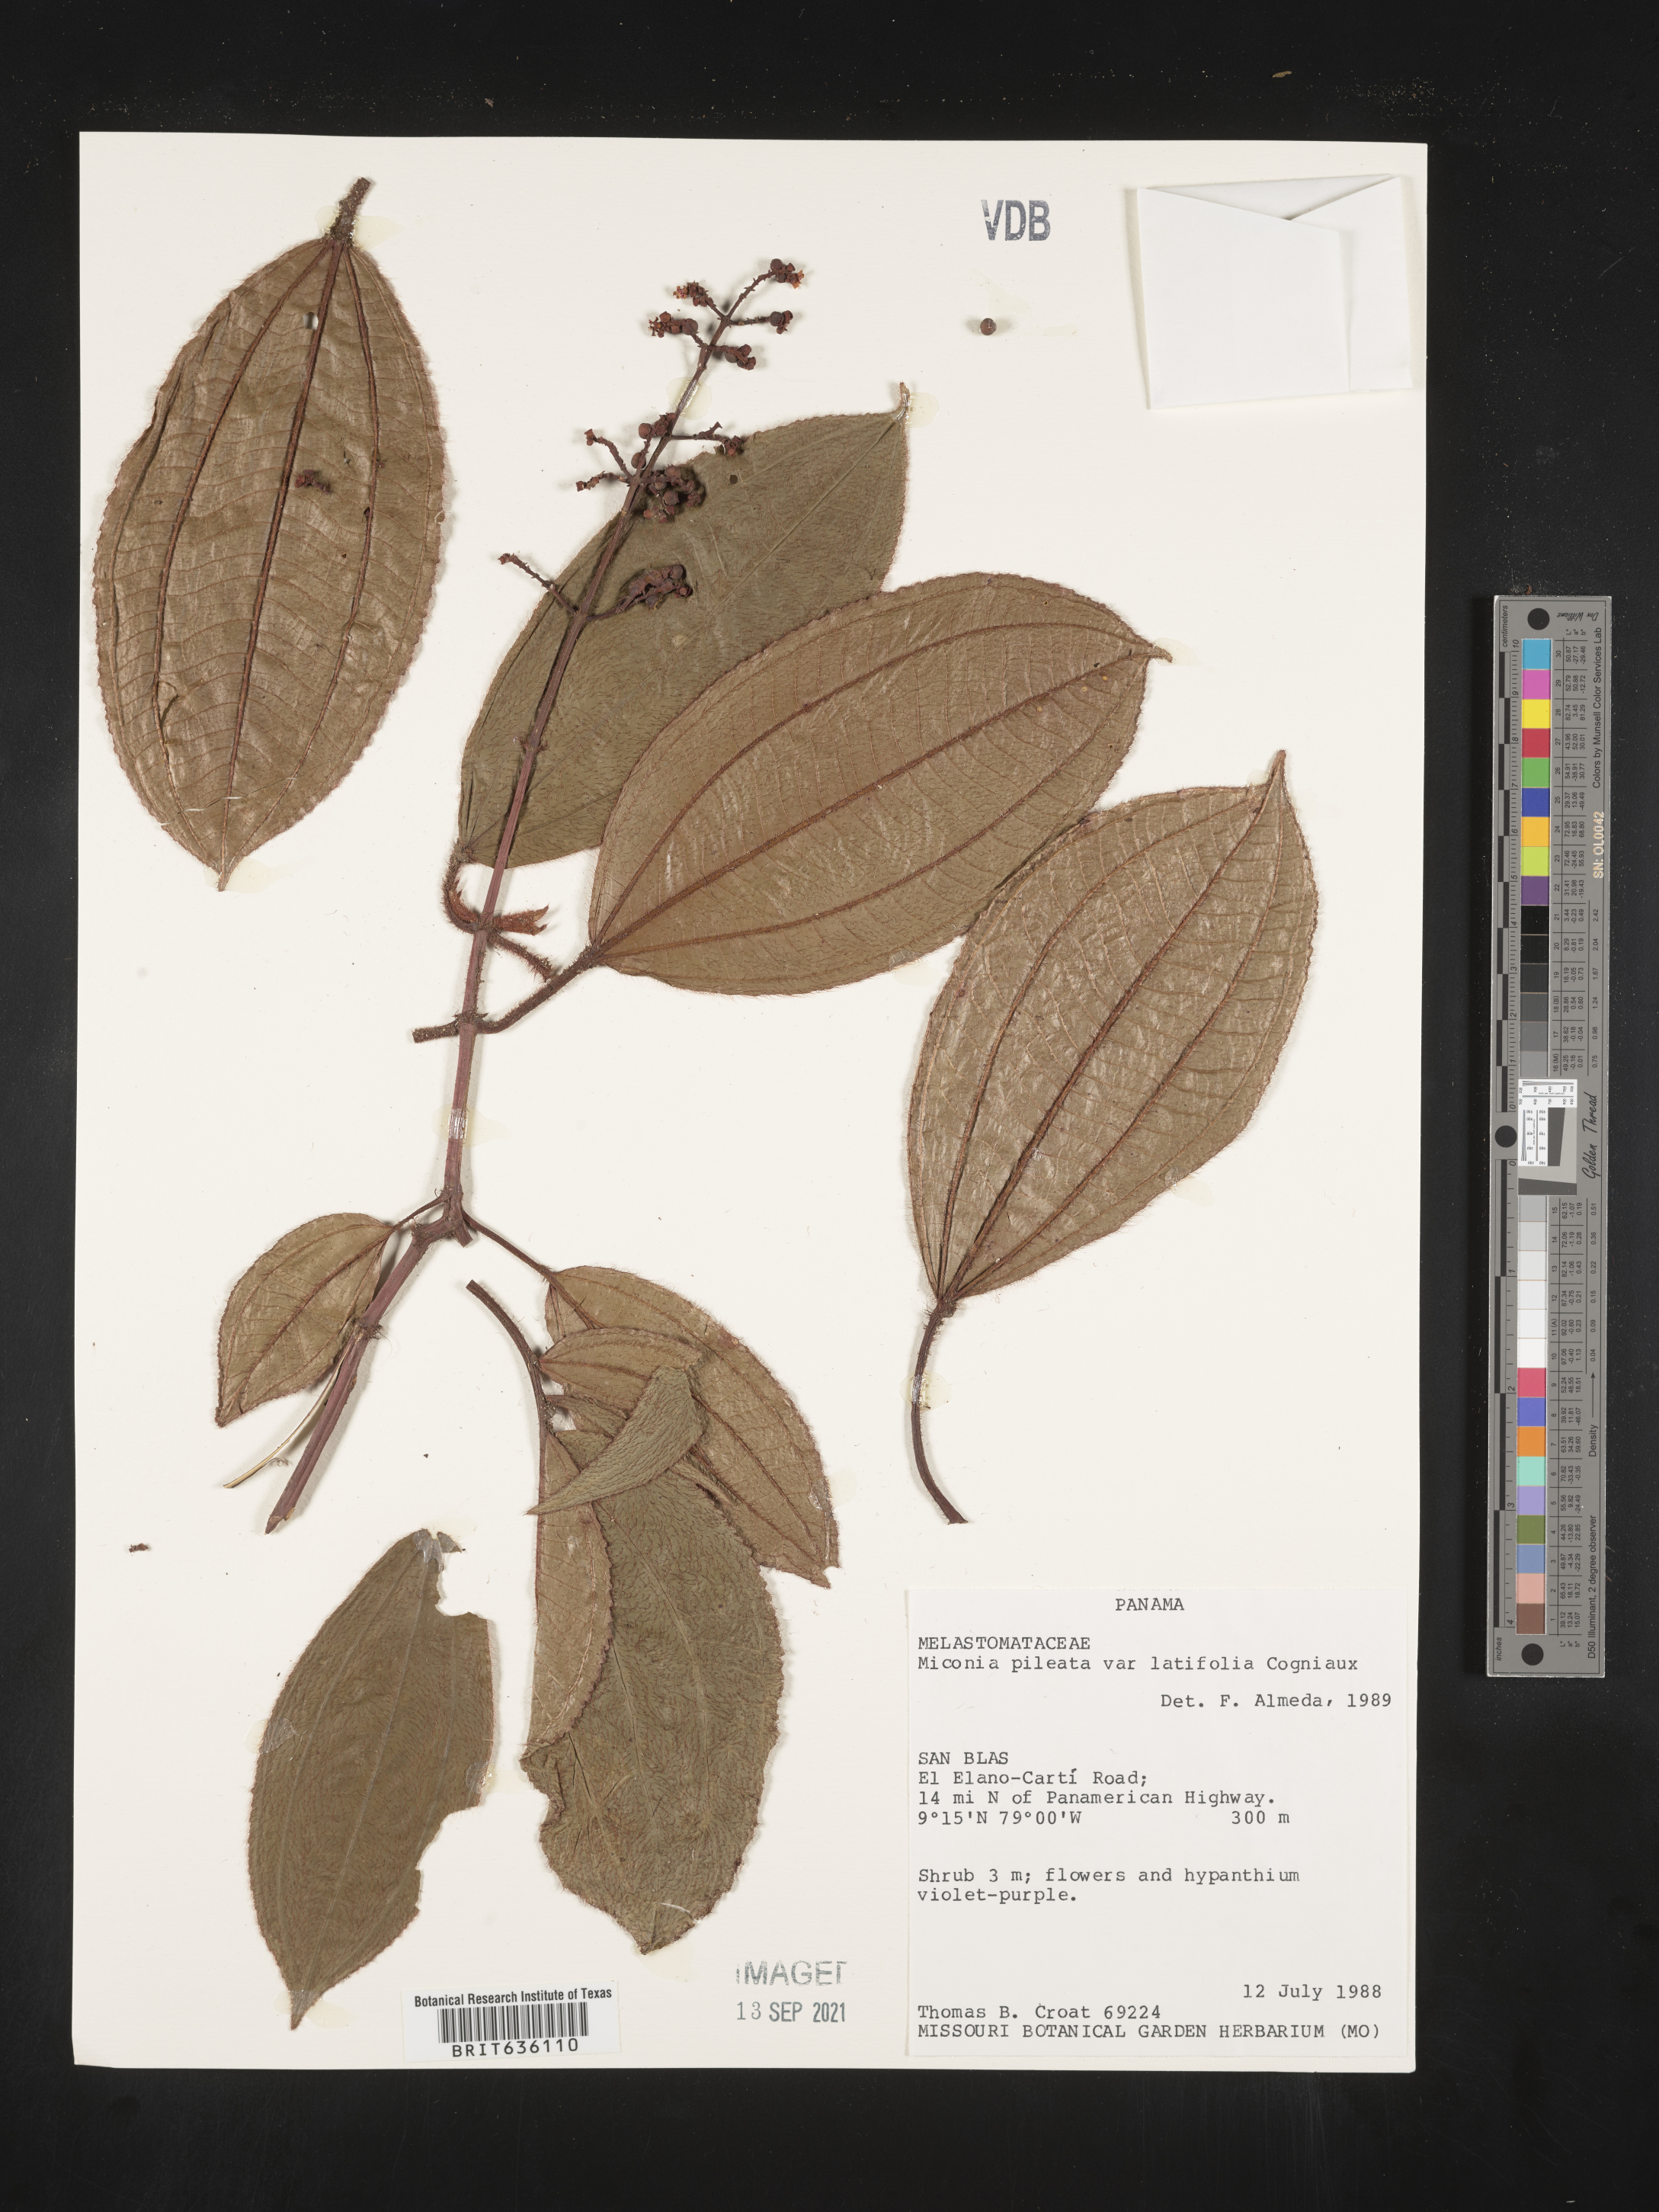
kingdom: Plantae
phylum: Tracheophyta
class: Magnoliopsida
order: Myrtales
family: Melastomataceae
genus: Miconia
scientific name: Miconia
